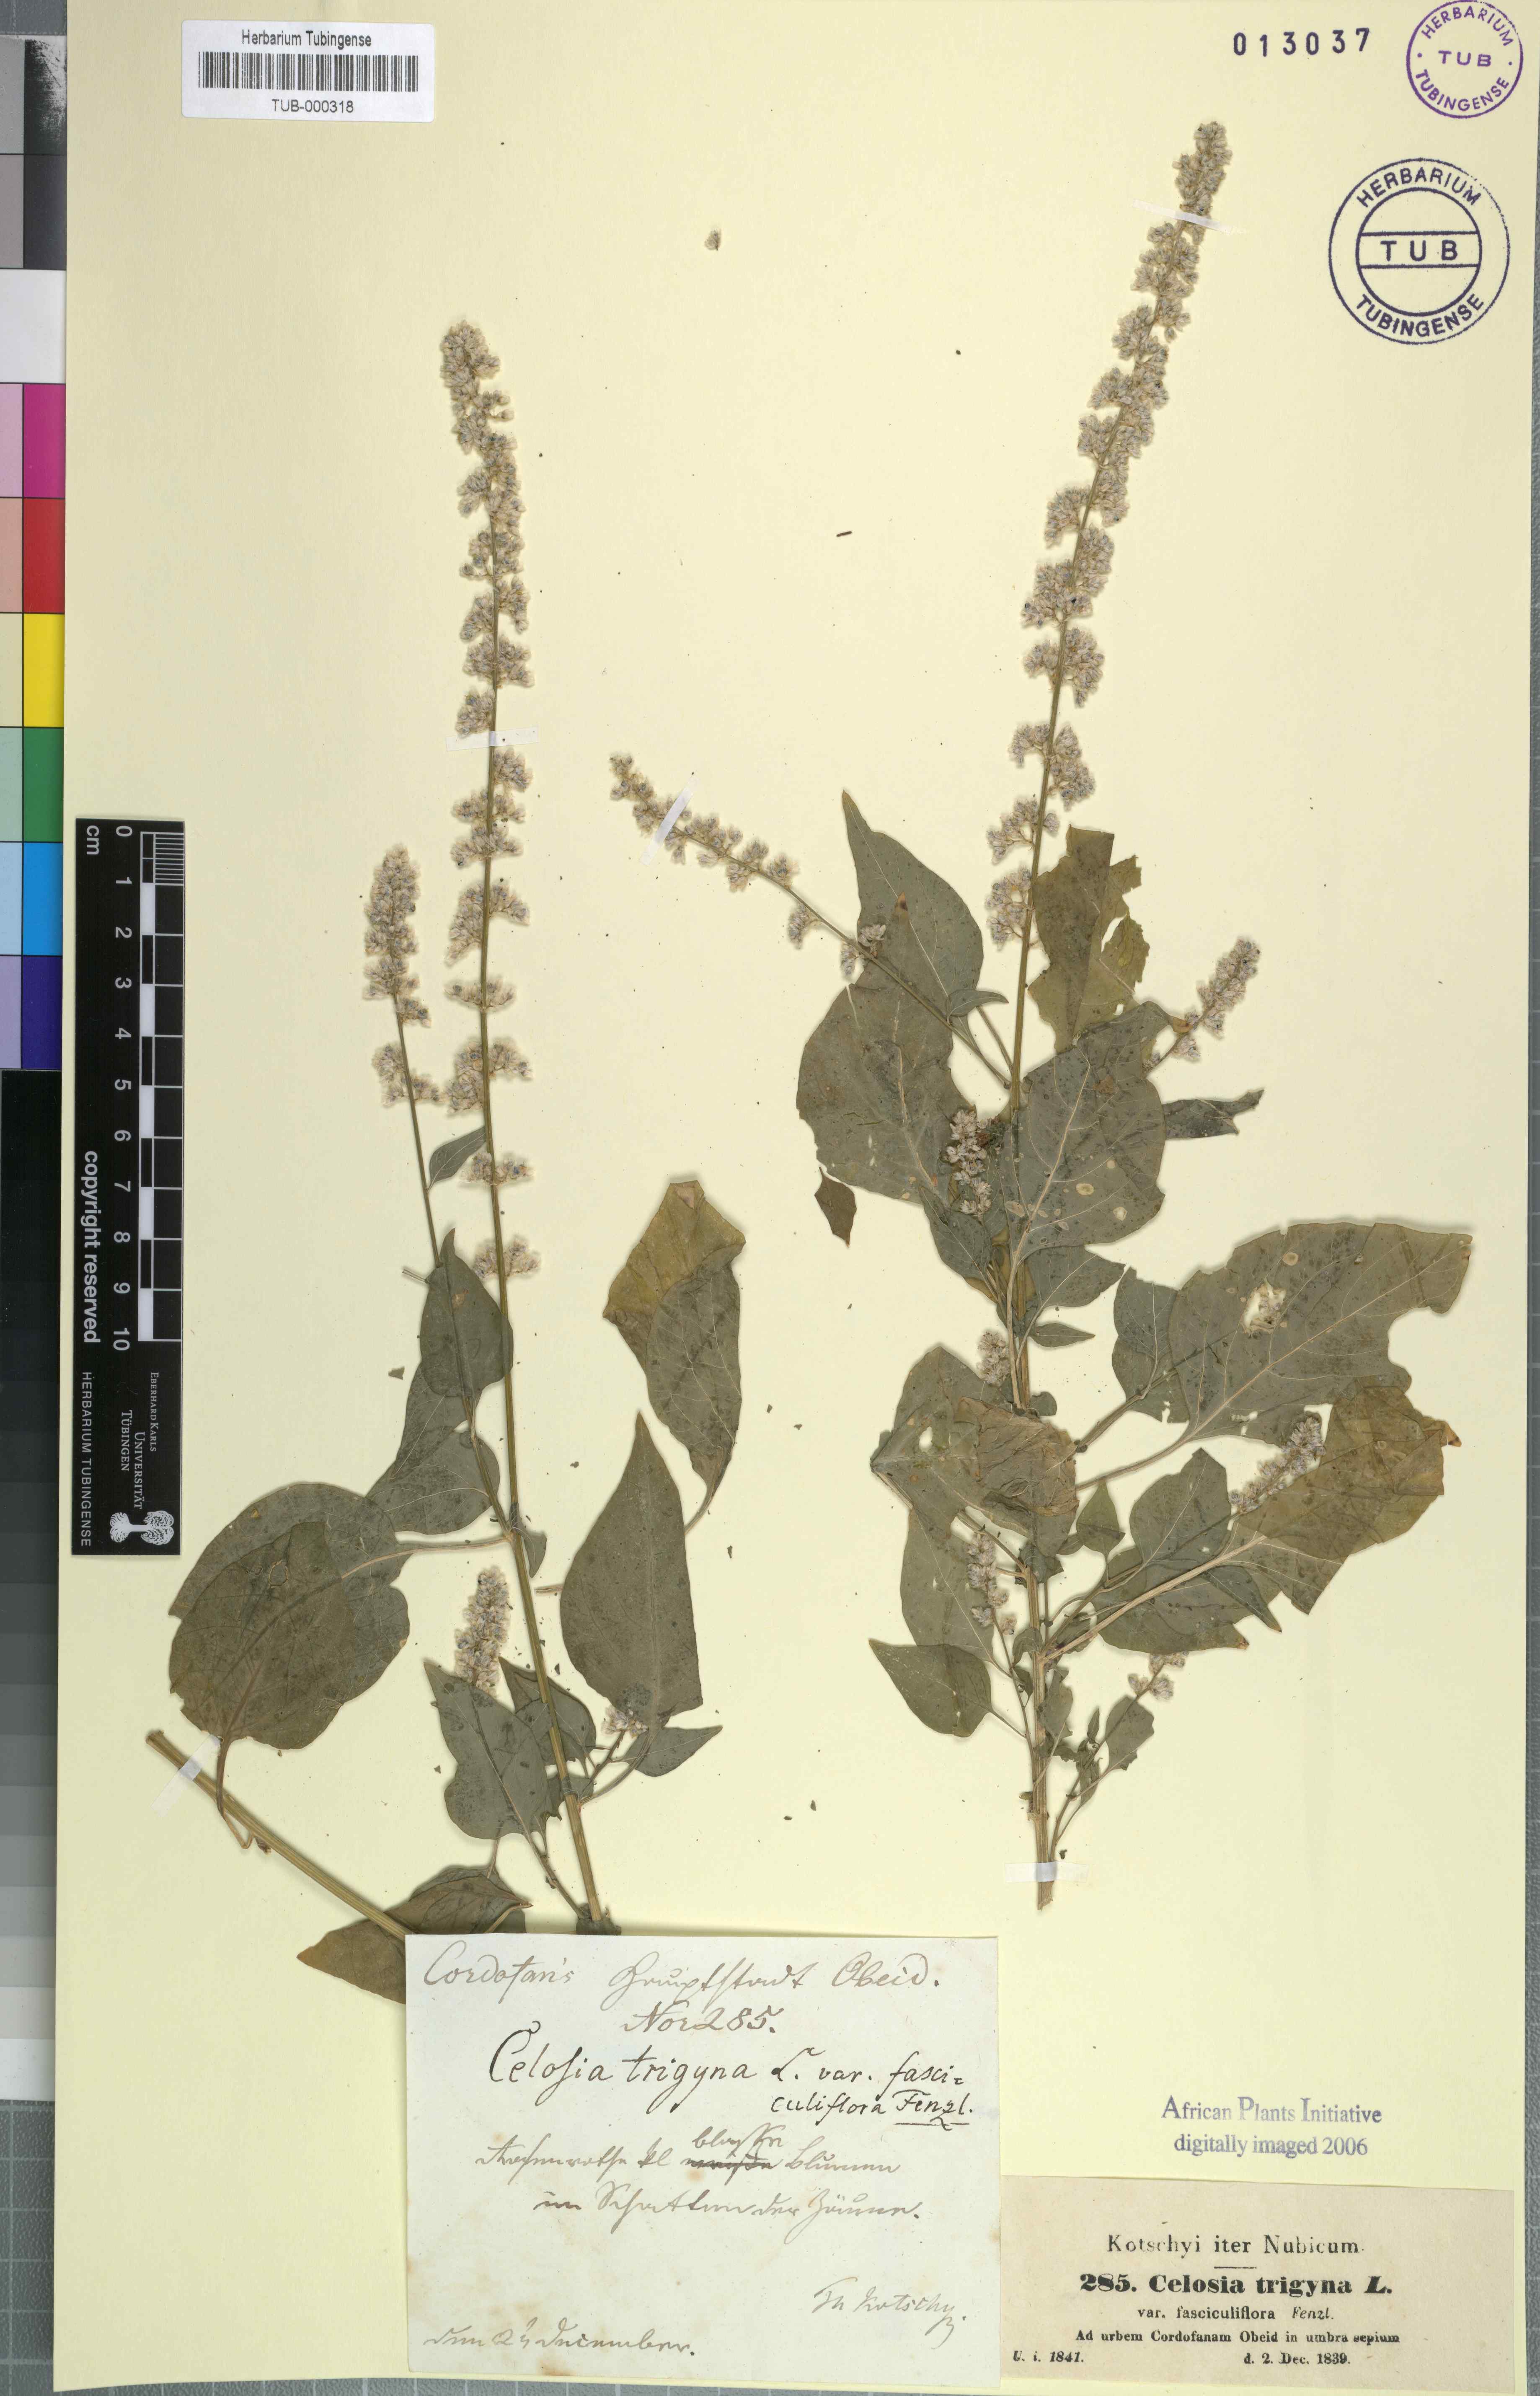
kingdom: Plantae
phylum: Tracheophyta
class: Magnoliopsida
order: Caryophyllales
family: Amaranthaceae
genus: Celosia
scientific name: Celosia trigyna
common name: Woolflower
